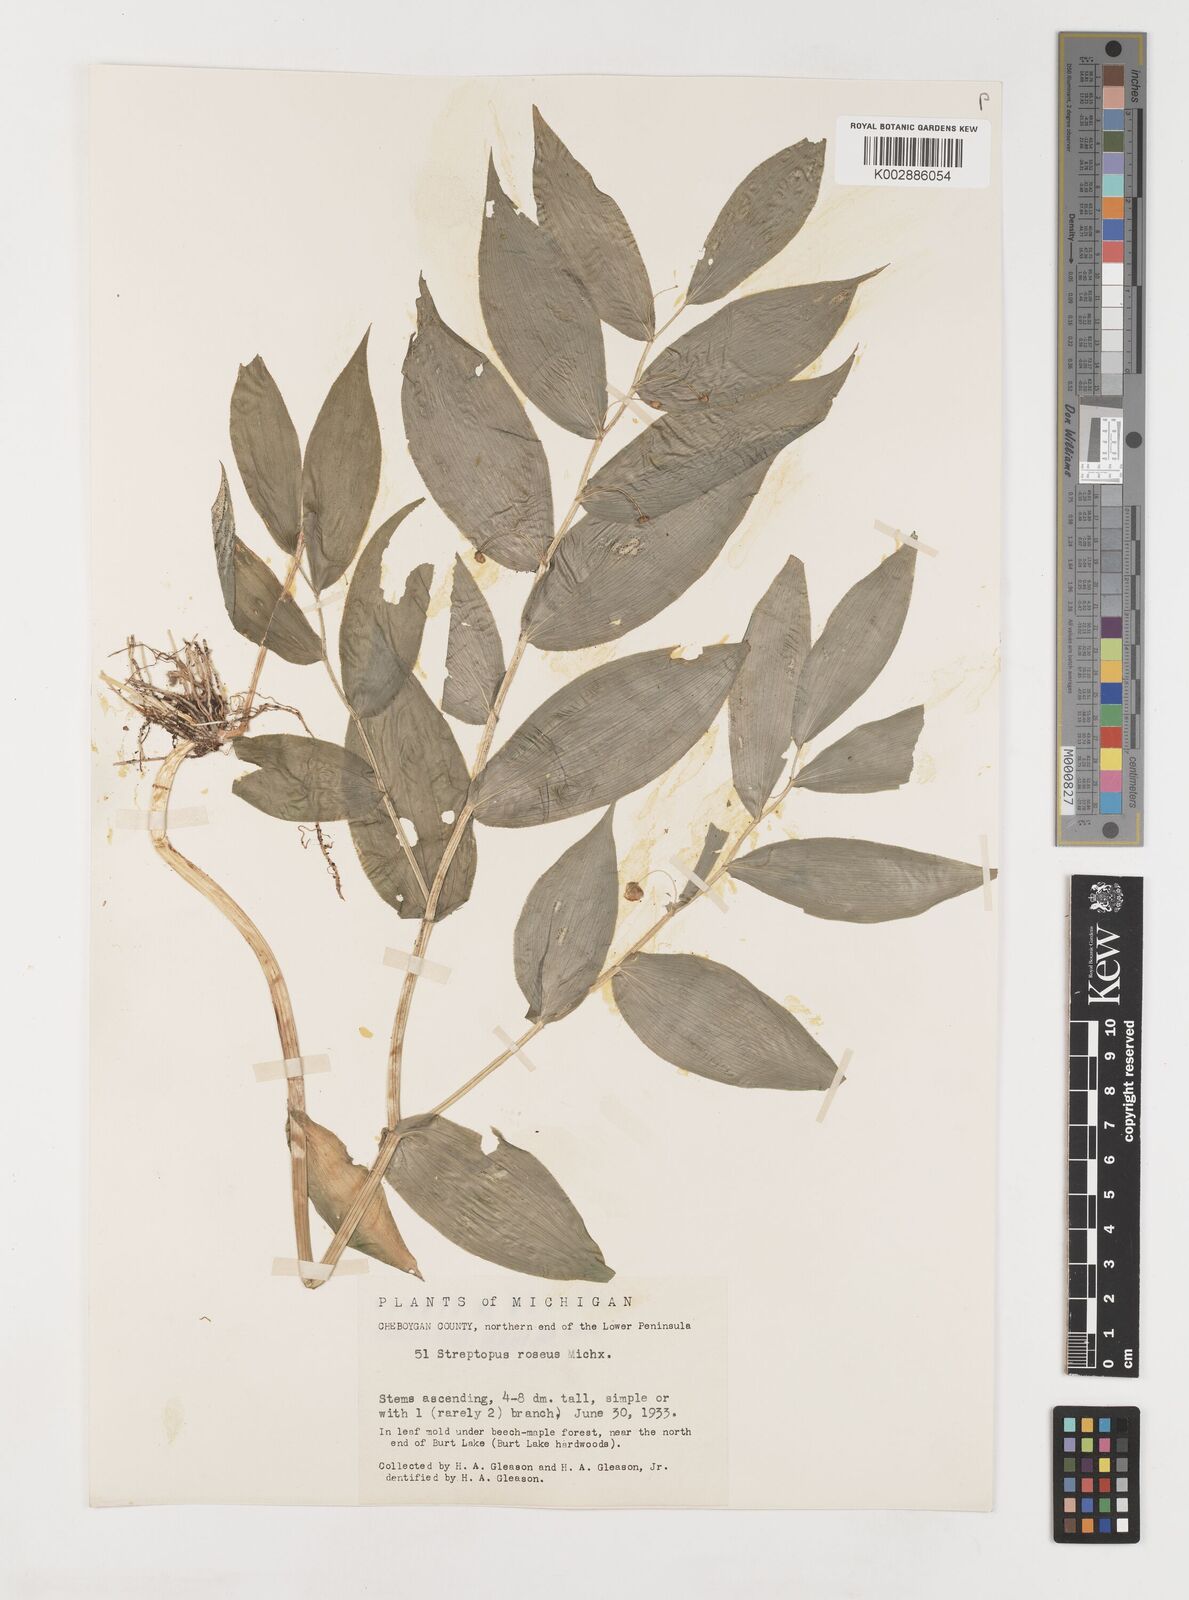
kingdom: Plantae
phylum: Tracheophyta
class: Liliopsida
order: Liliales
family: Liliaceae
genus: Streptopus
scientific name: Streptopus lanceolatus
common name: Rose mandarin
